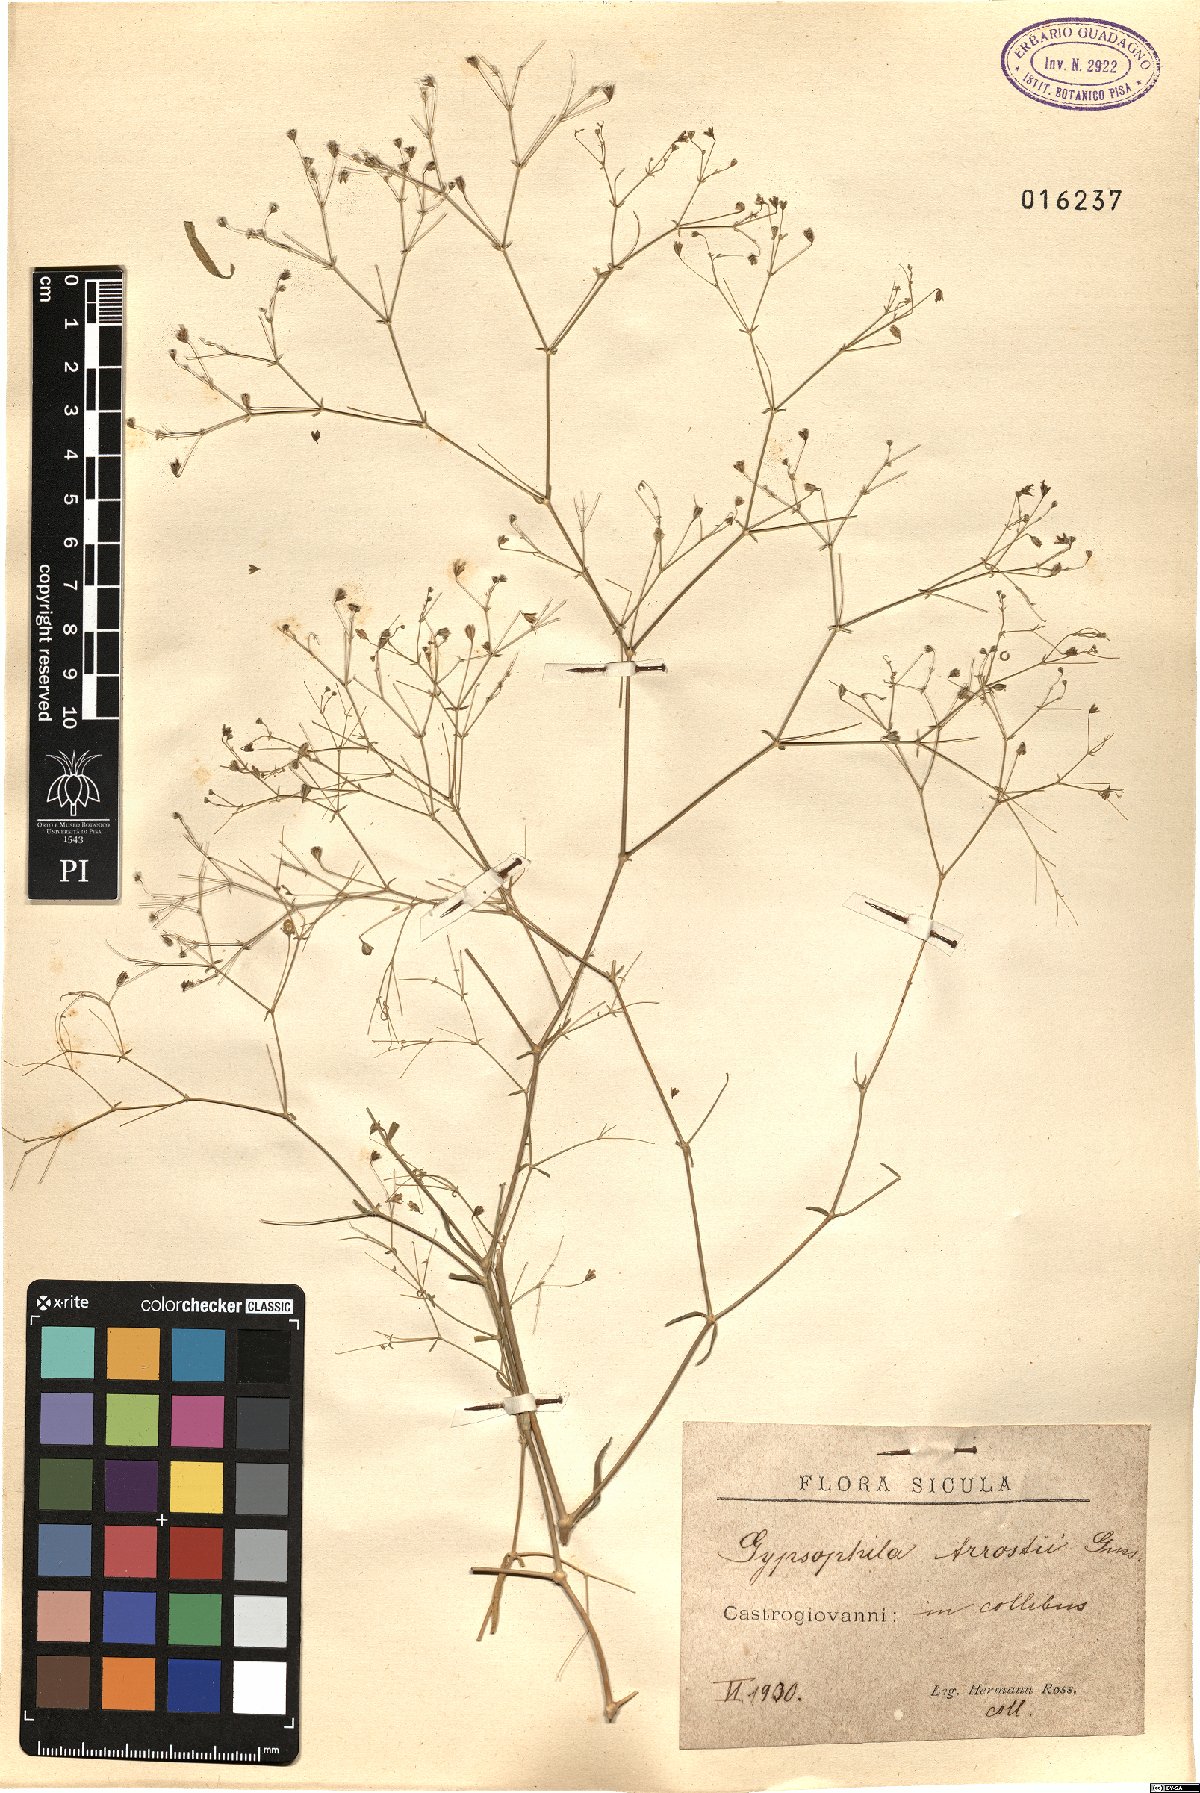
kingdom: Plantae
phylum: Tracheophyta
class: Magnoliopsida
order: Caryophyllales
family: Caryophyllaceae
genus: Gypsophila
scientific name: Gypsophila arrostii
